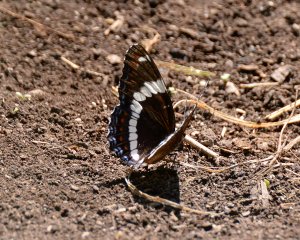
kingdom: Animalia
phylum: Arthropoda
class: Insecta
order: Lepidoptera
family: Nymphalidae
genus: Limenitis
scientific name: Limenitis arthemis
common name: Red-spotted Admiral
